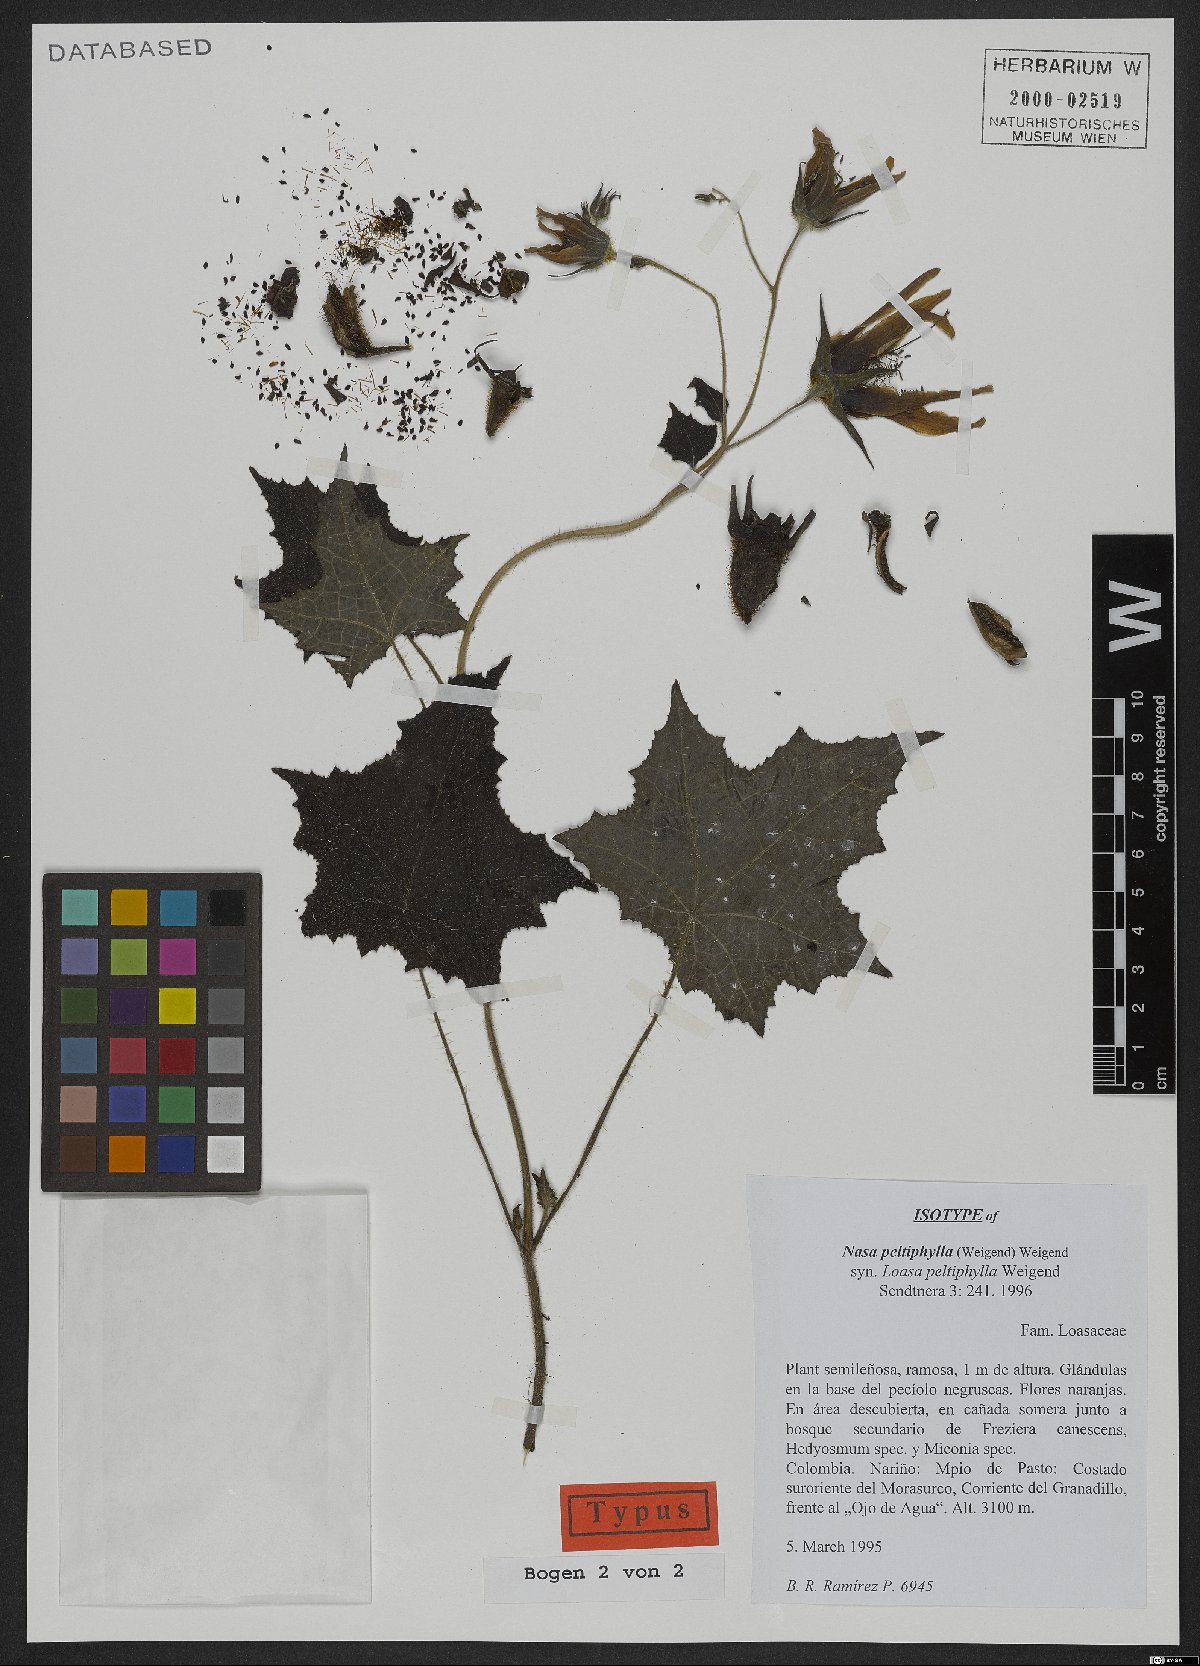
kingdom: Plantae
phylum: Tracheophyta
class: Magnoliopsida
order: Cornales
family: Loasaceae
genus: Nasa
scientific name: Nasa peltiphylla
